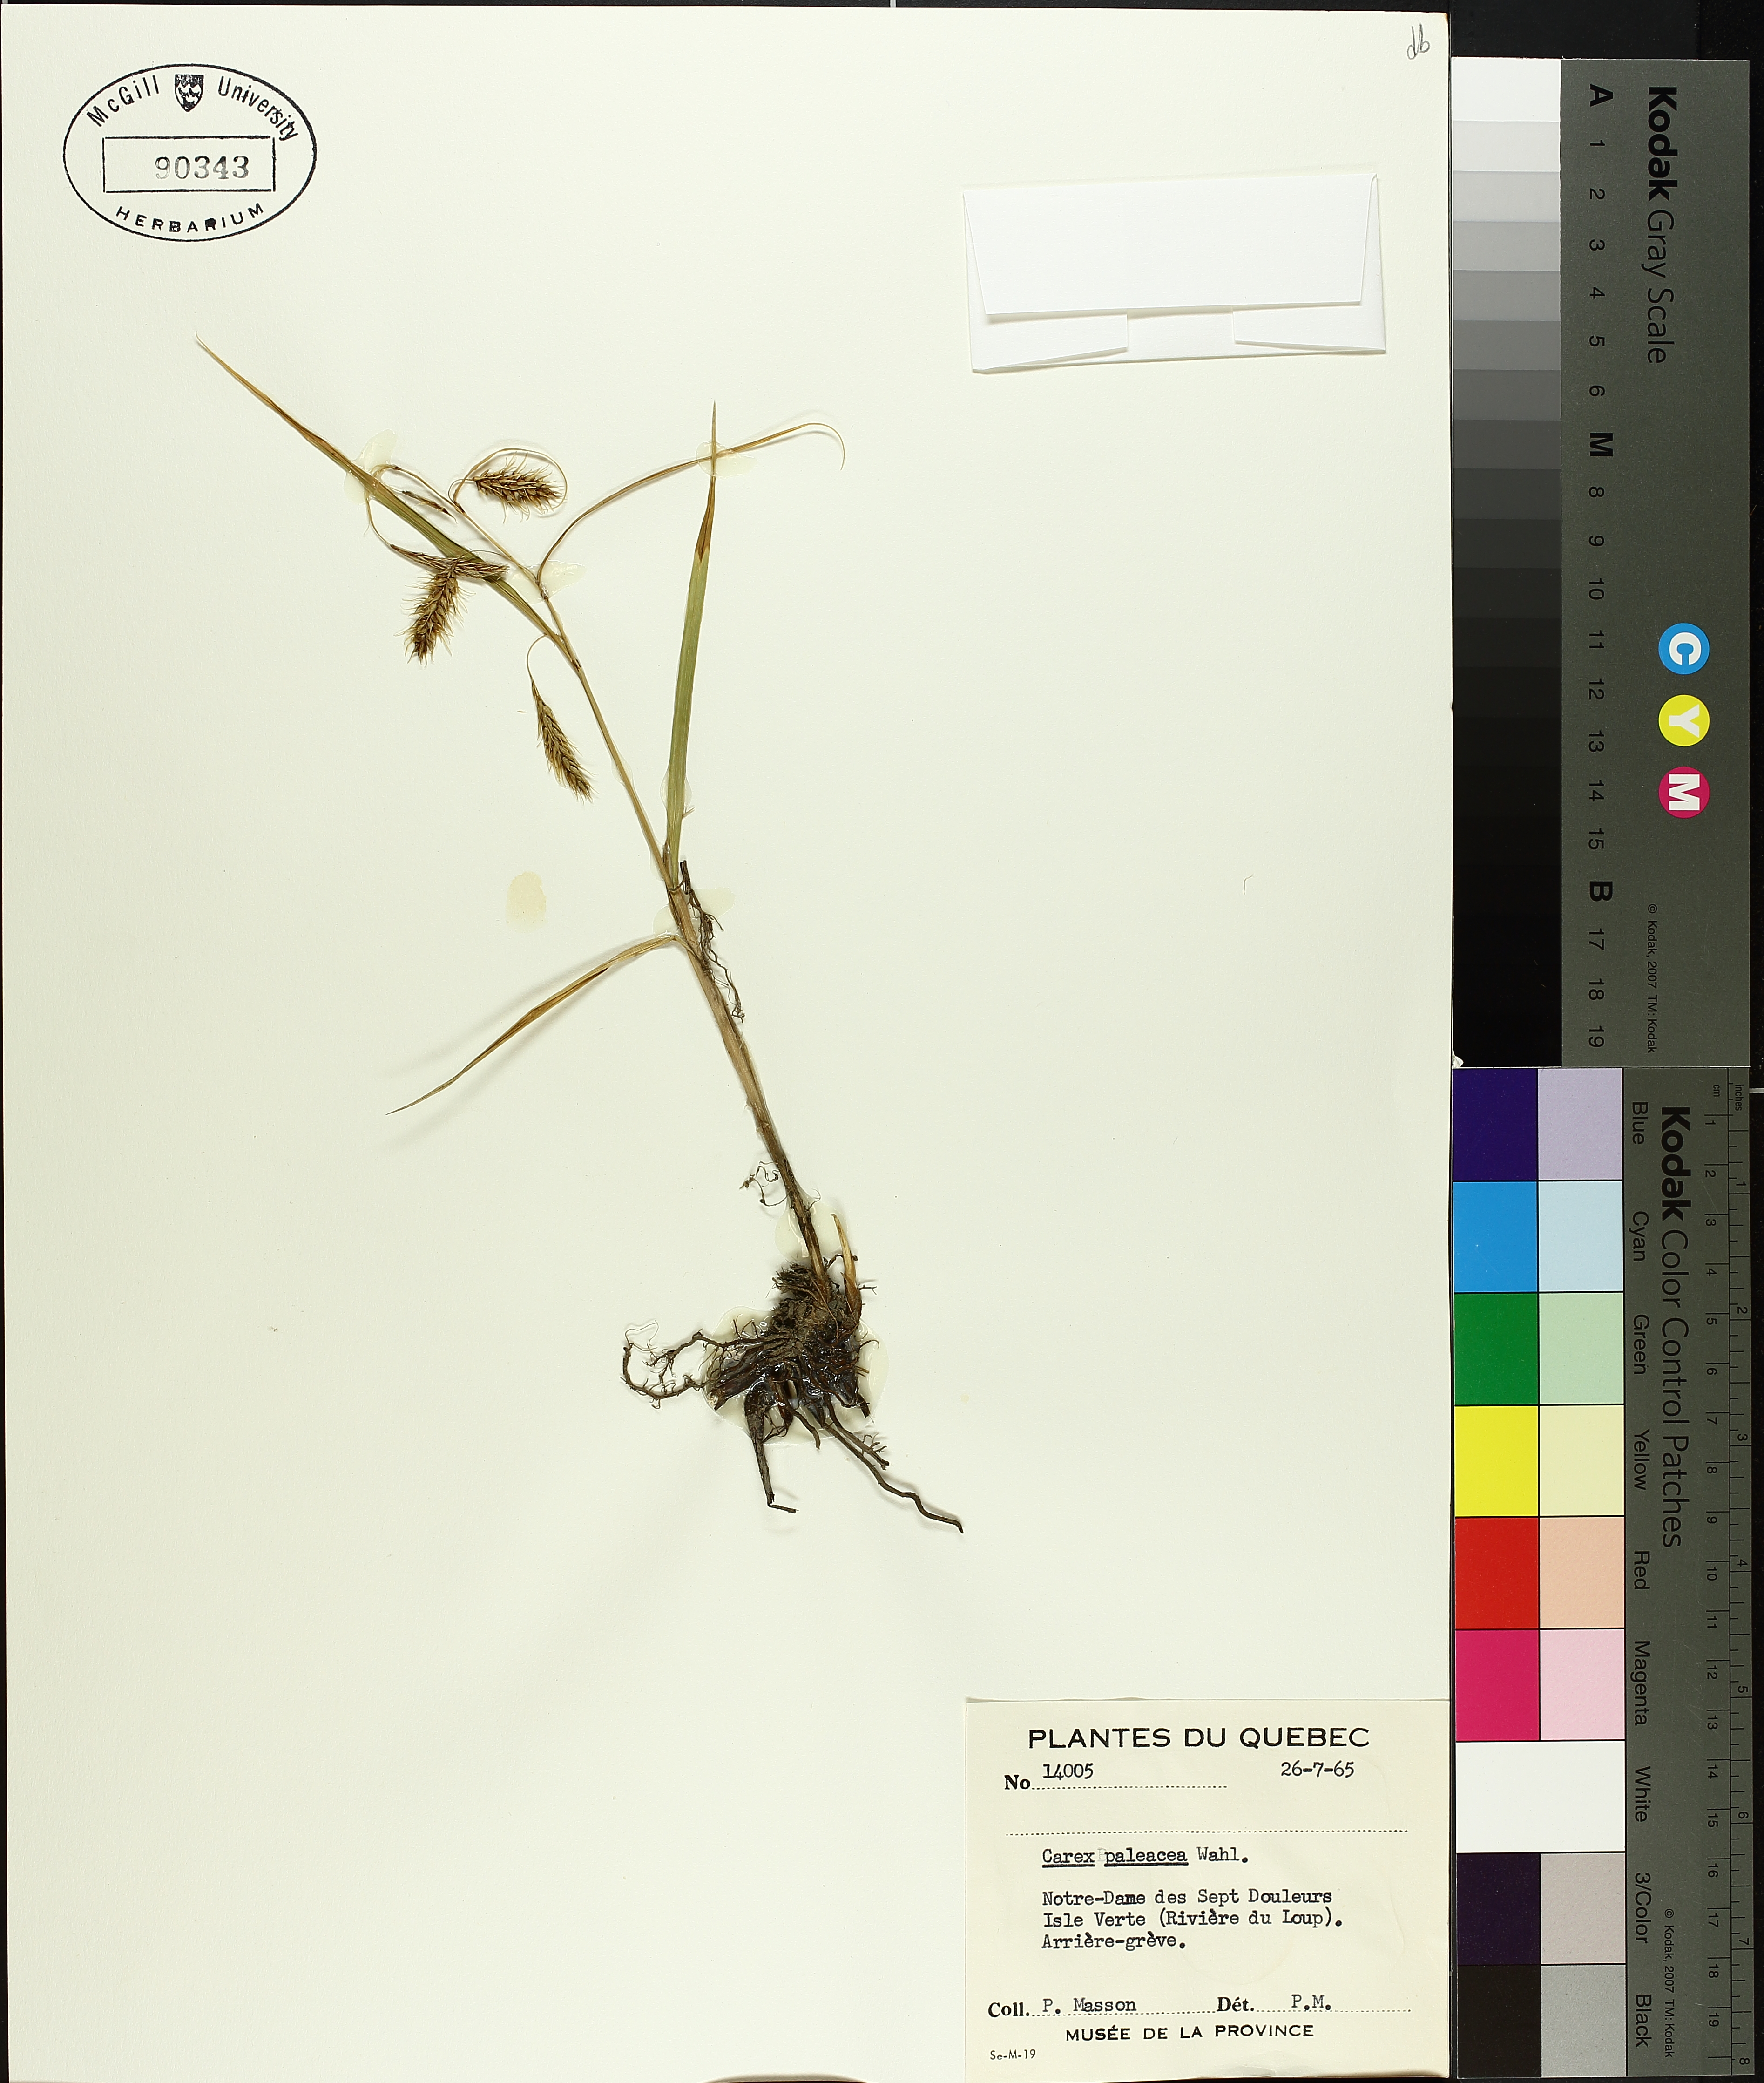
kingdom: Plantae
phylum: Tracheophyta
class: Liliopsida
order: Poales
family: Cyperaceae
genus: Carex
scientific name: Carex paleacea
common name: Chaffy sedge
